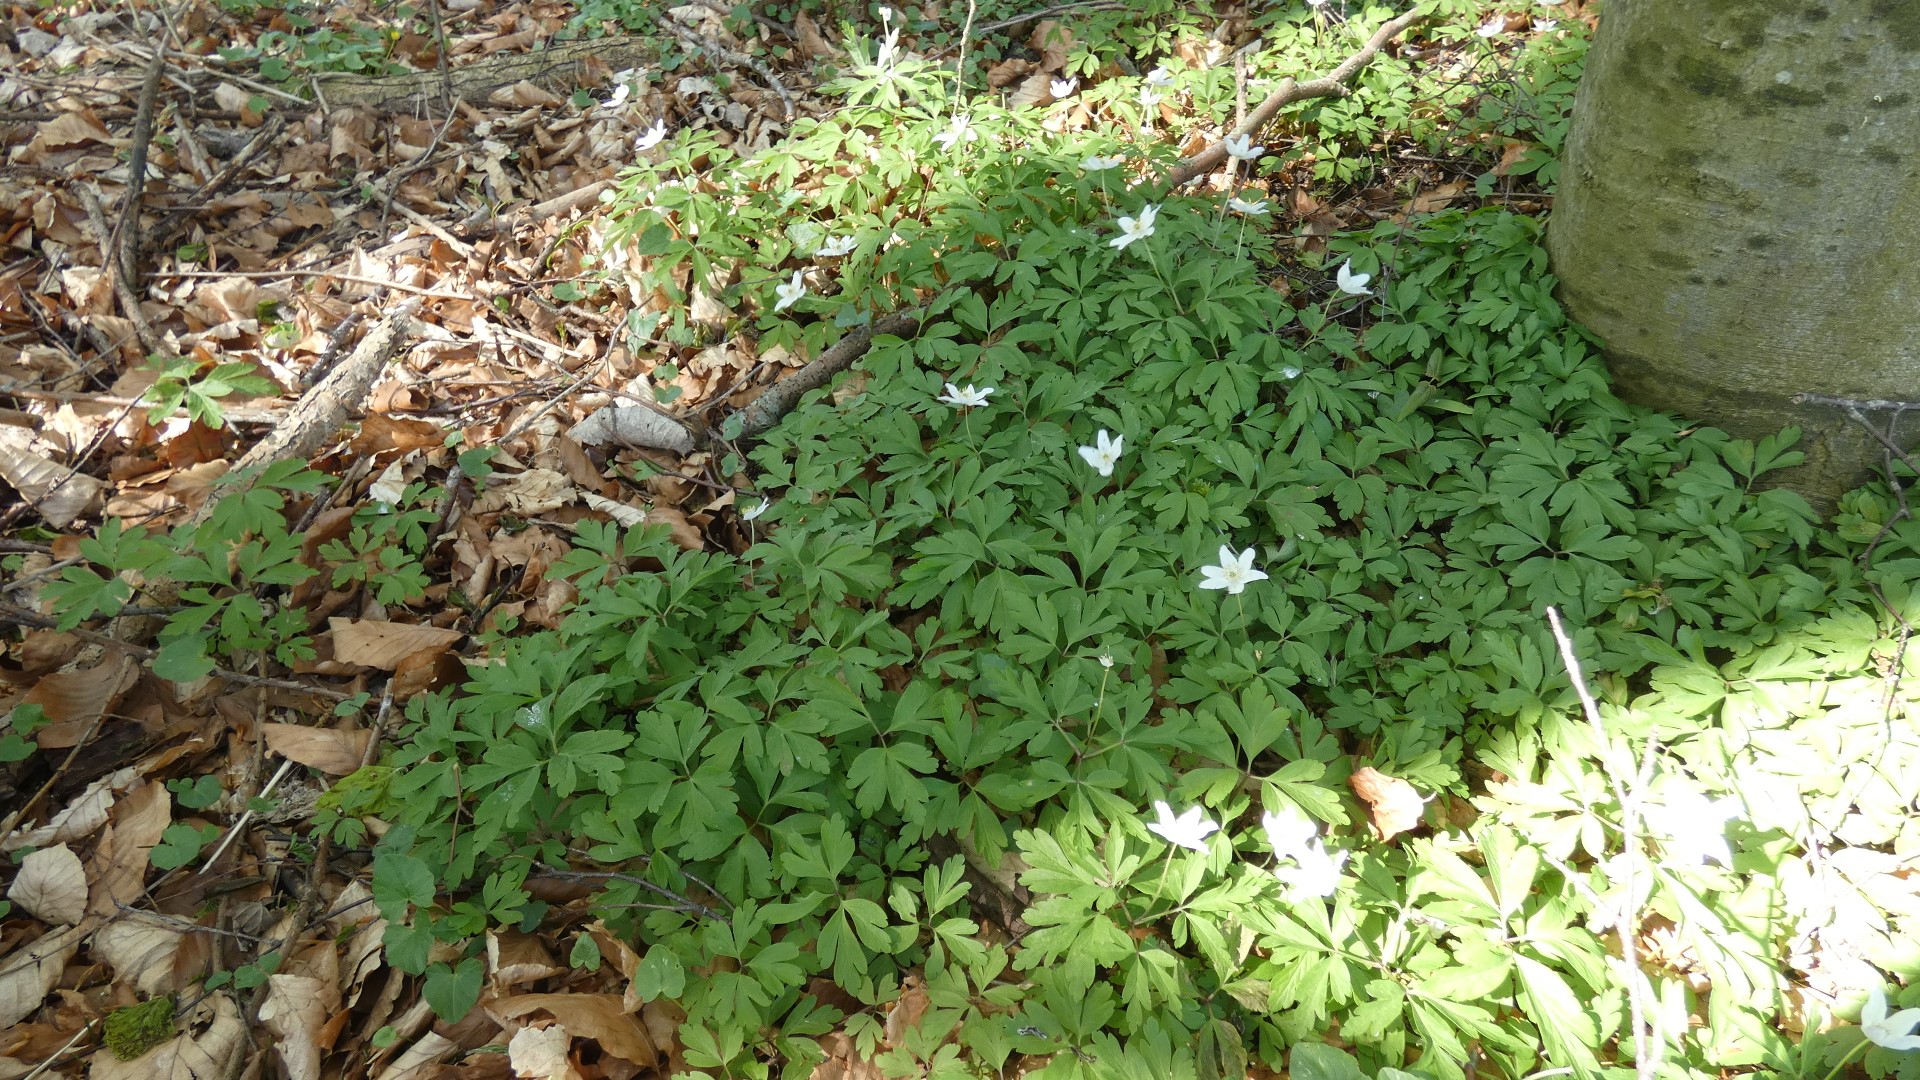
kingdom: Plantae
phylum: Tracheophyta
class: Magnoliopsida
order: Ranunculales
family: Ranunculaceae
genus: Anemone
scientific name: Anemone nemorosa
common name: Hvid anemone
